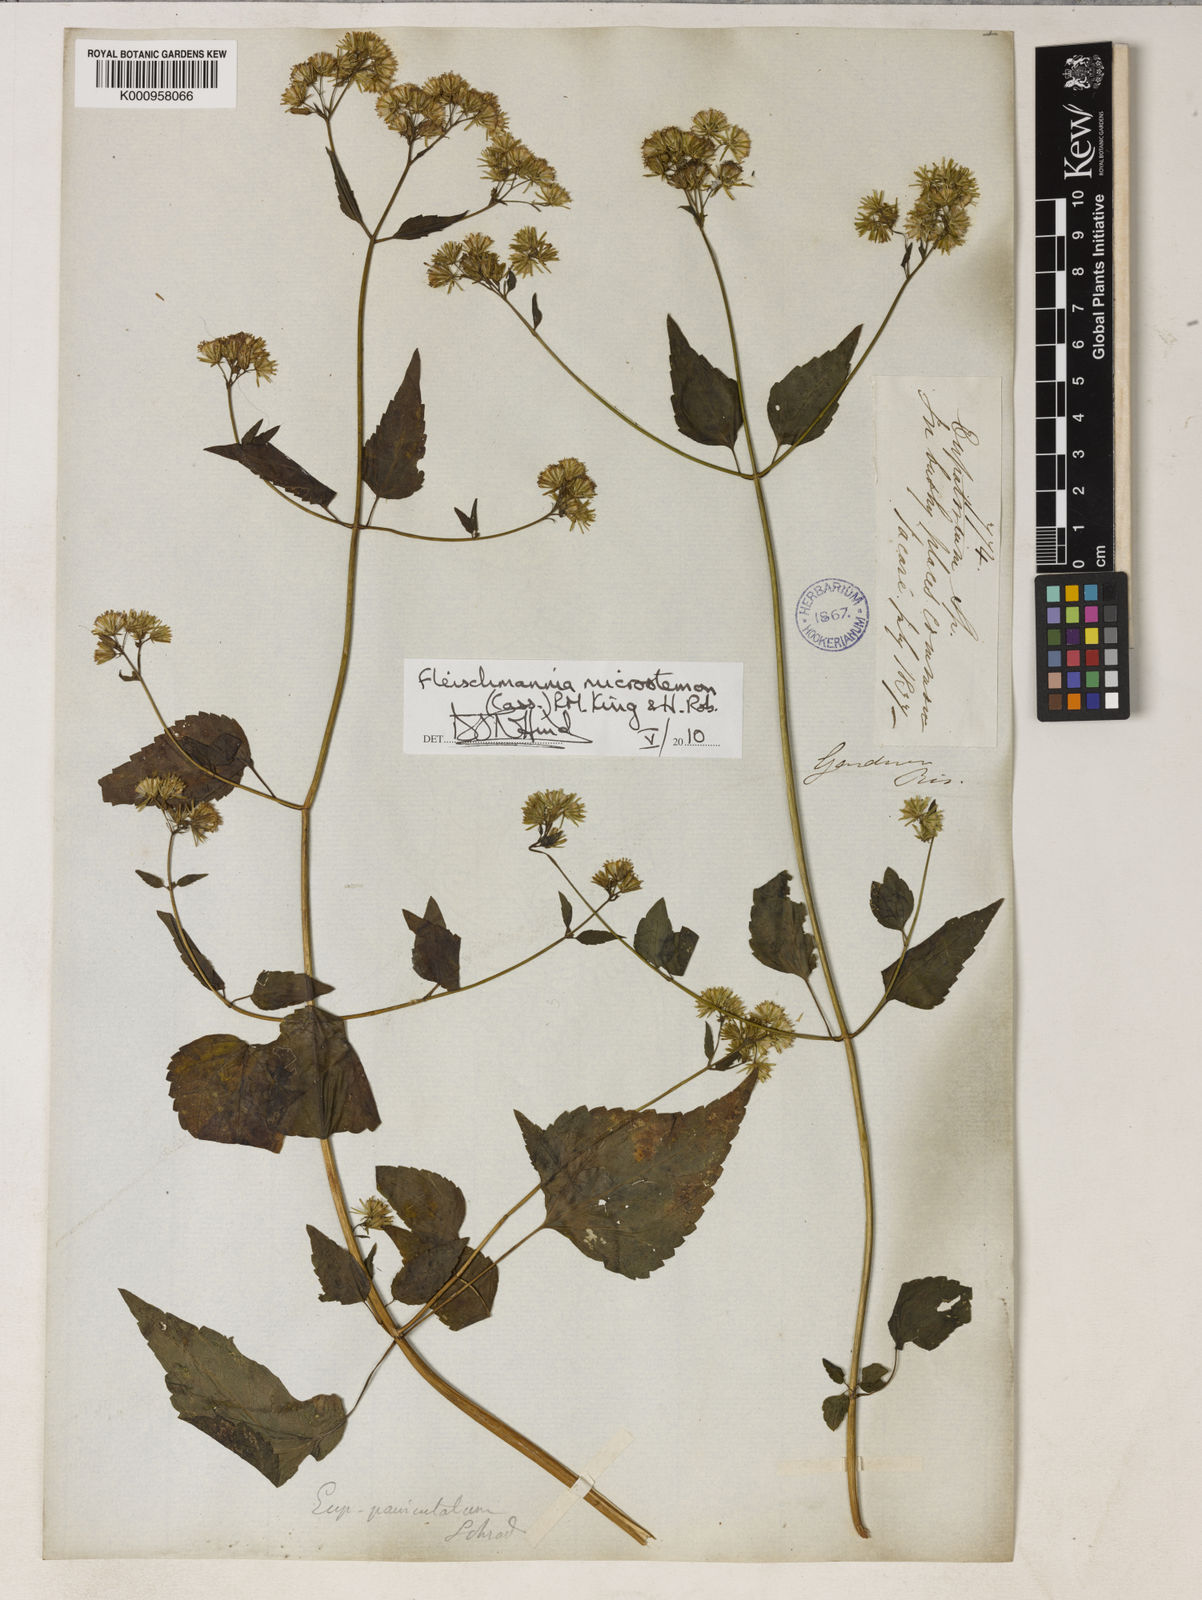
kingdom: Plantae
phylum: Tracheophyta
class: Magnoliopsida
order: Asterales
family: Asteraceae
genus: Fleischmannia
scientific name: Fleischmannia microstemon
